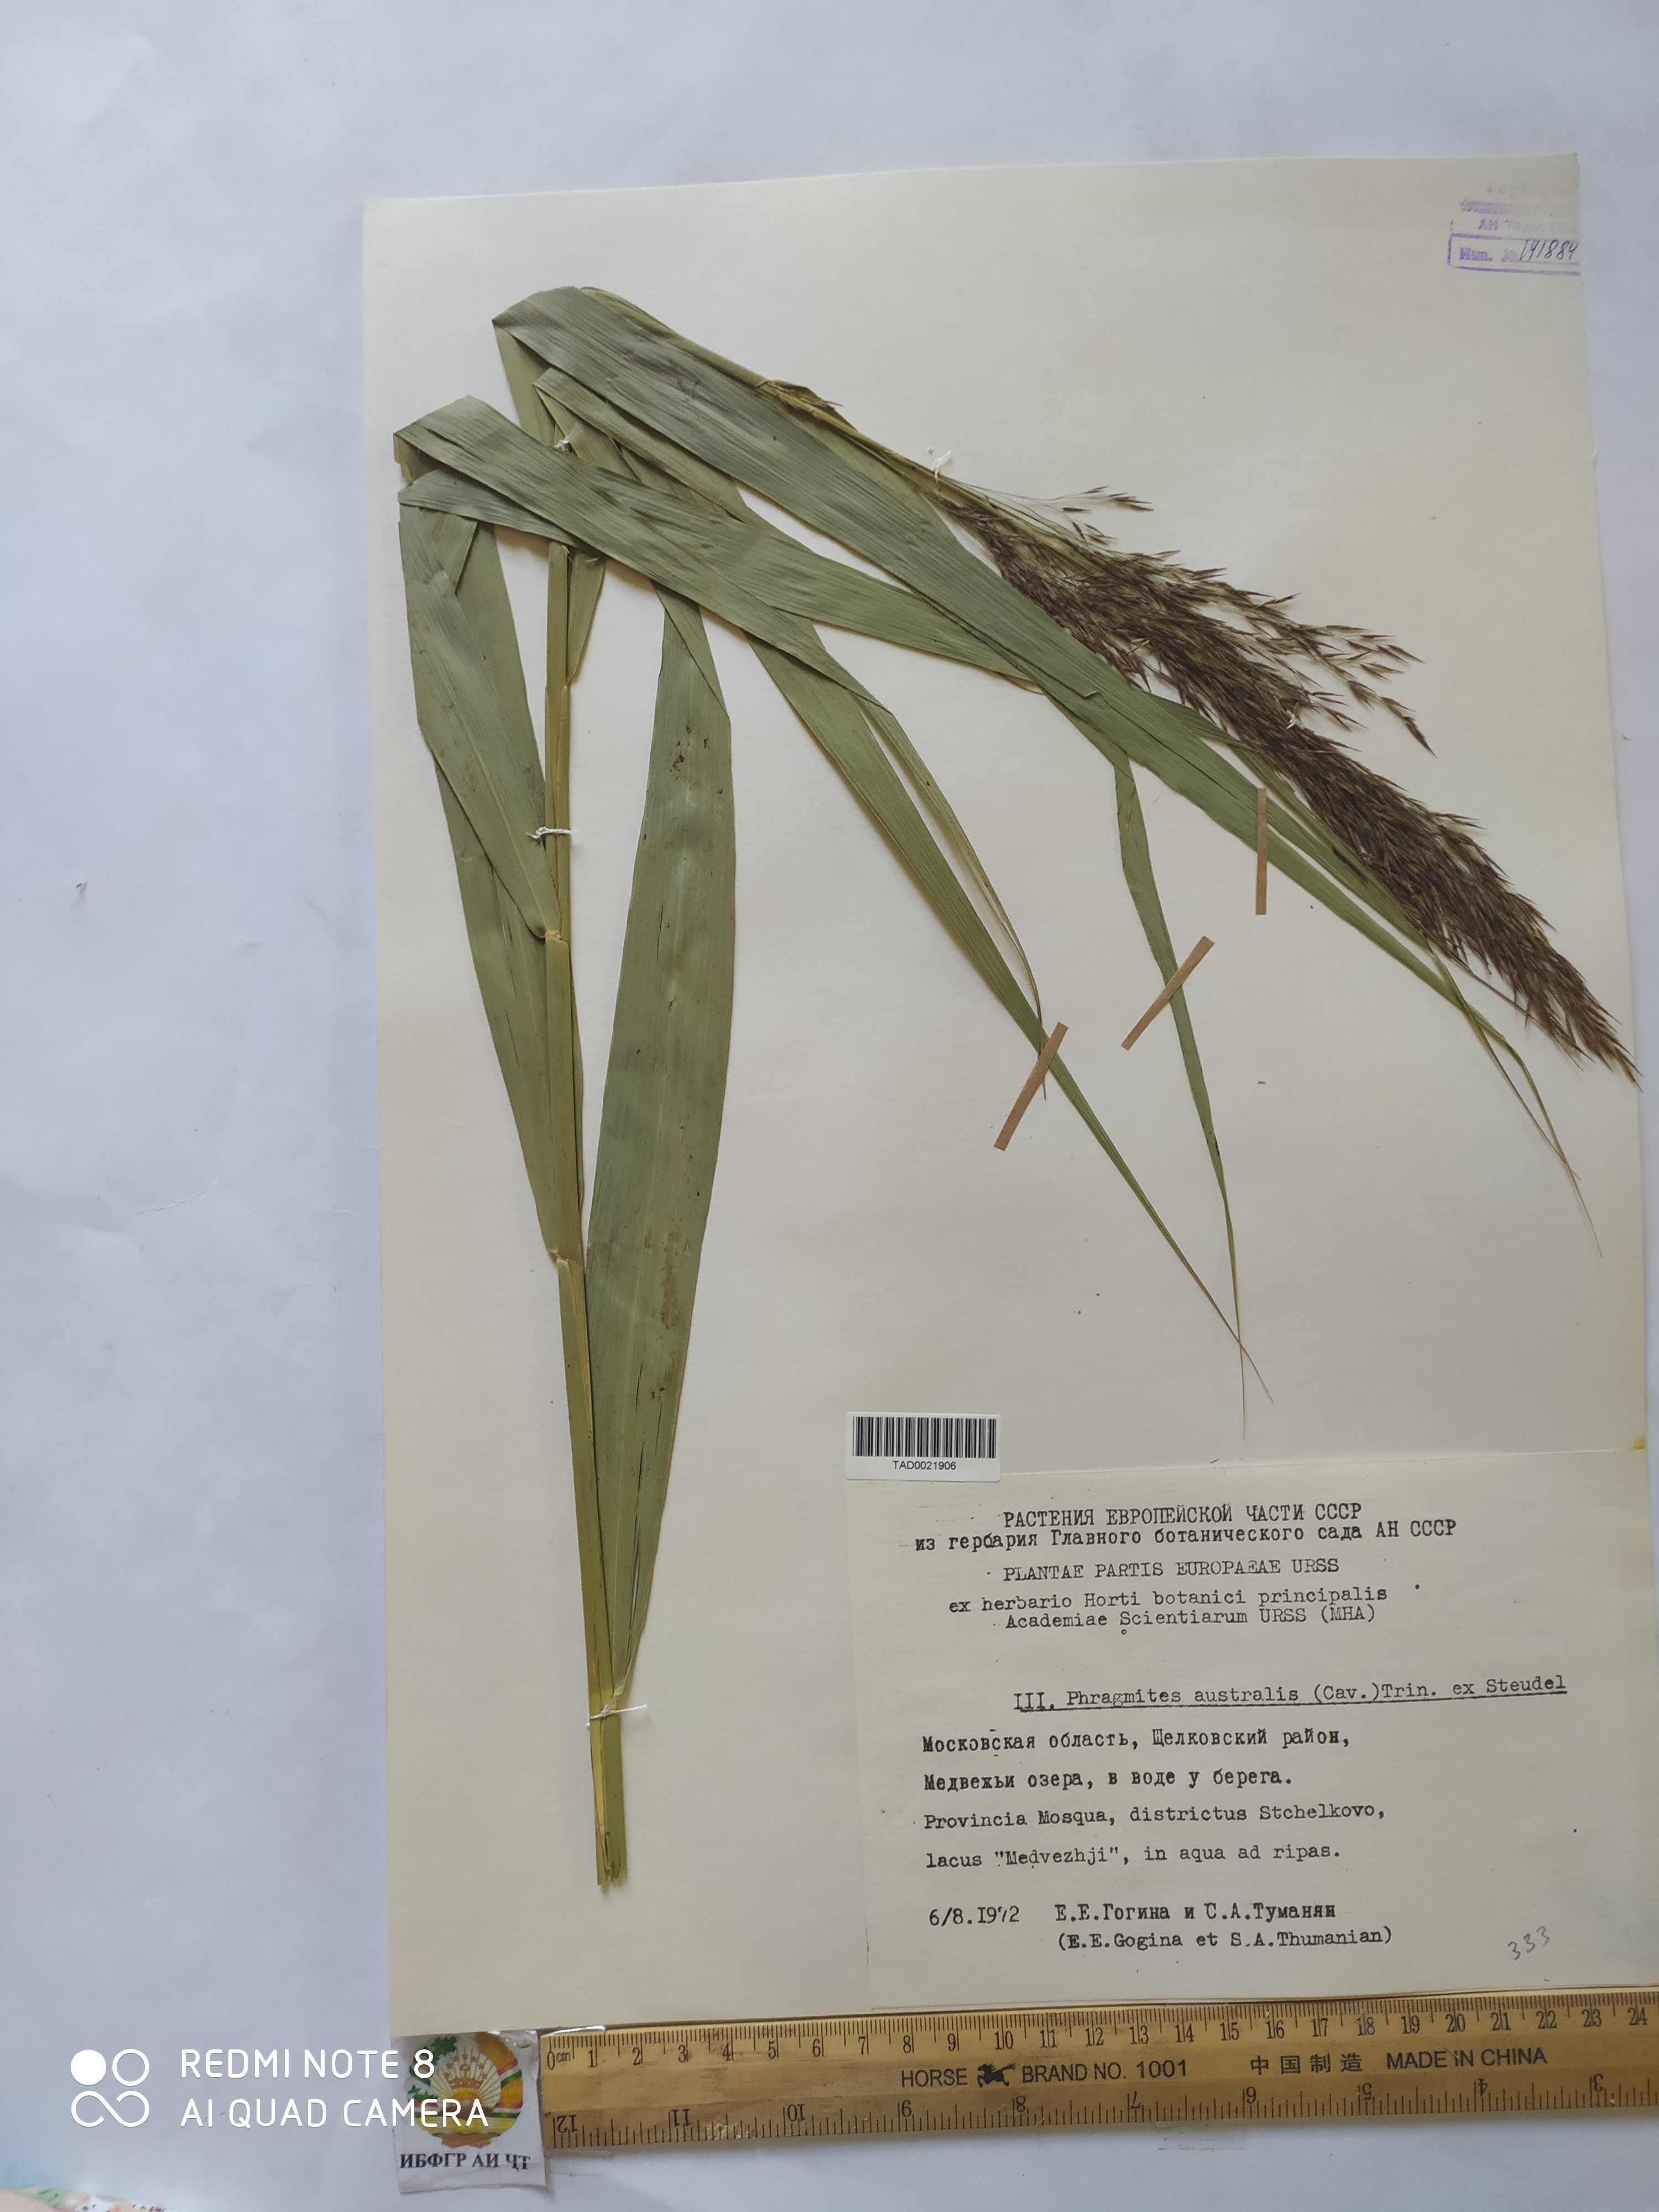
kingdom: Plantae
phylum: Tracheophyta
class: Liliopsida
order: Poales
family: Poaceae
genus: Phragmites
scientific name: Phragmites australis
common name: Common reed
